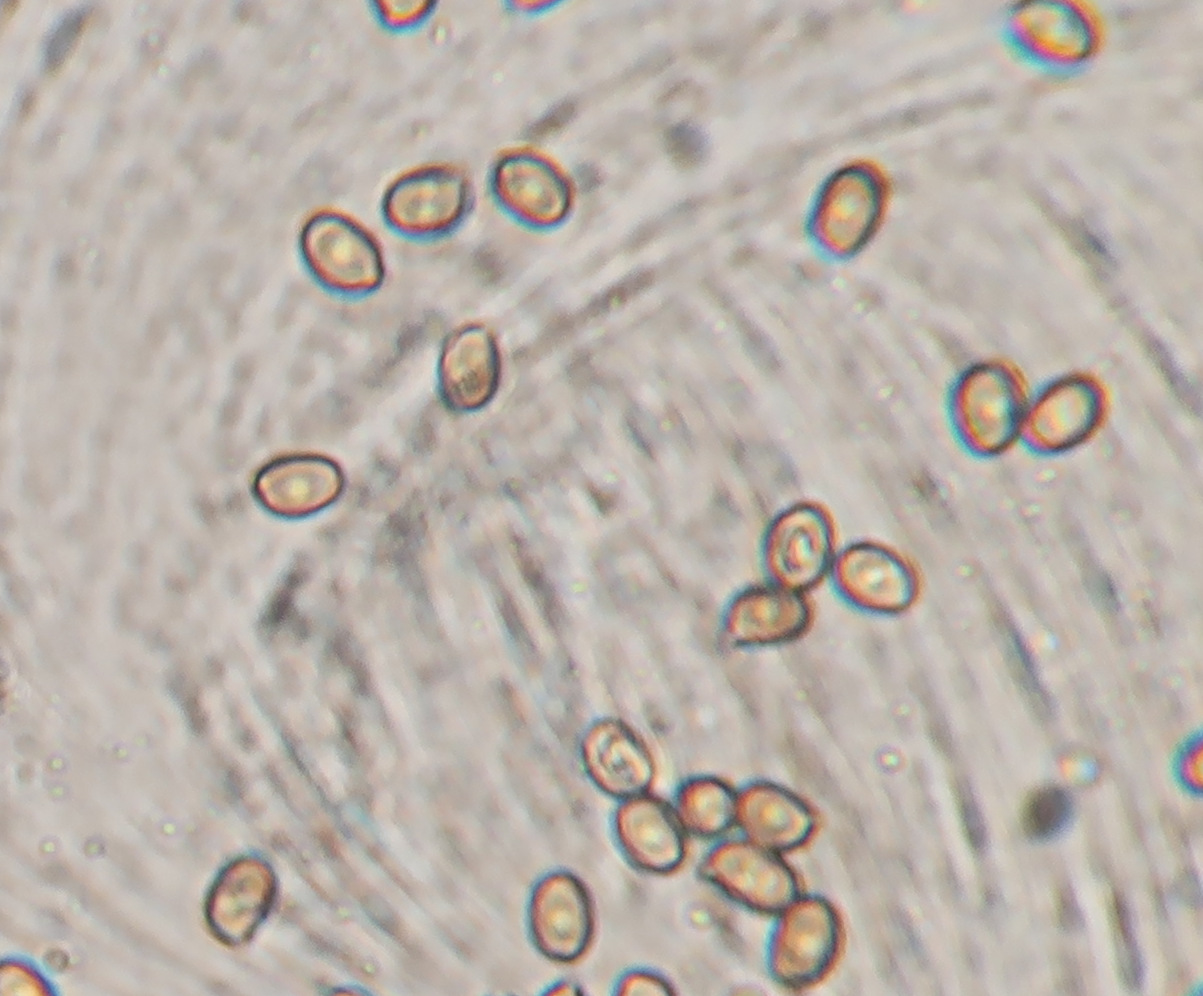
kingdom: Fungi
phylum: Basidiomycota
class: Agaricomycetes
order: Agaricales
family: Agaricaceae
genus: Agaricus
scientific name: Agaricus impudicus
